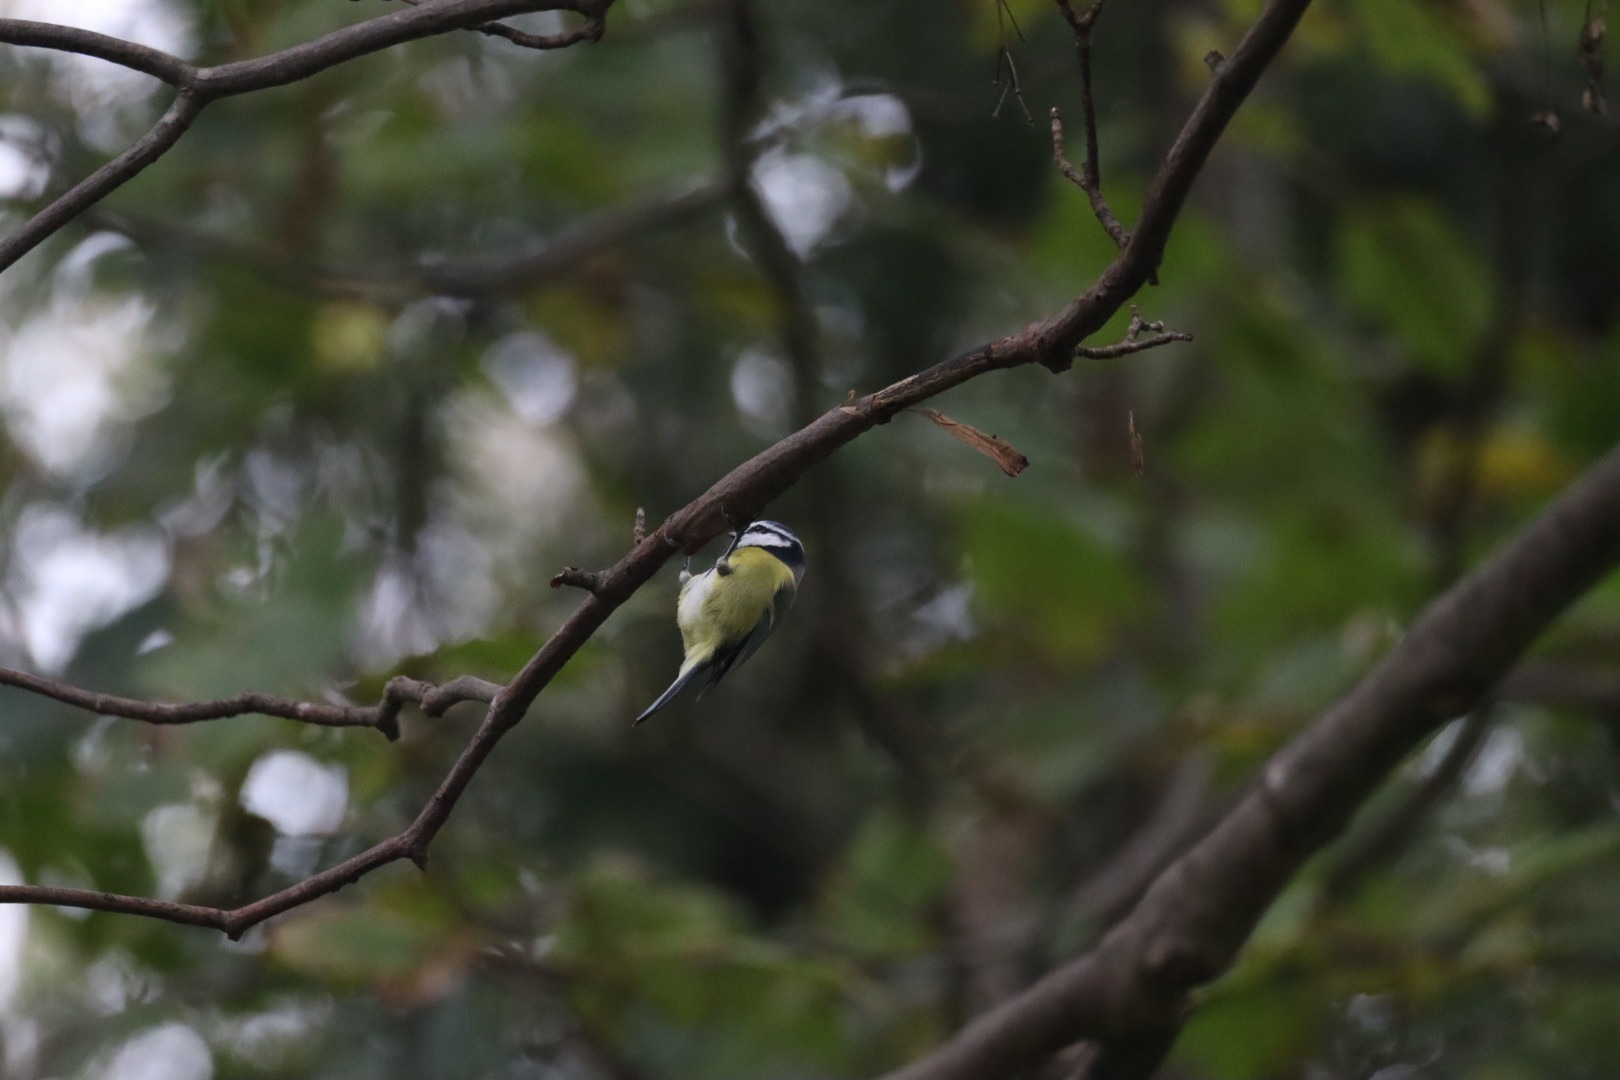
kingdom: Animalia
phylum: Chordata
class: Aves
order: Passeriformes
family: Paridae
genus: Cyanistes
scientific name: Cyanistes caeruleus
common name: Blåmejse
